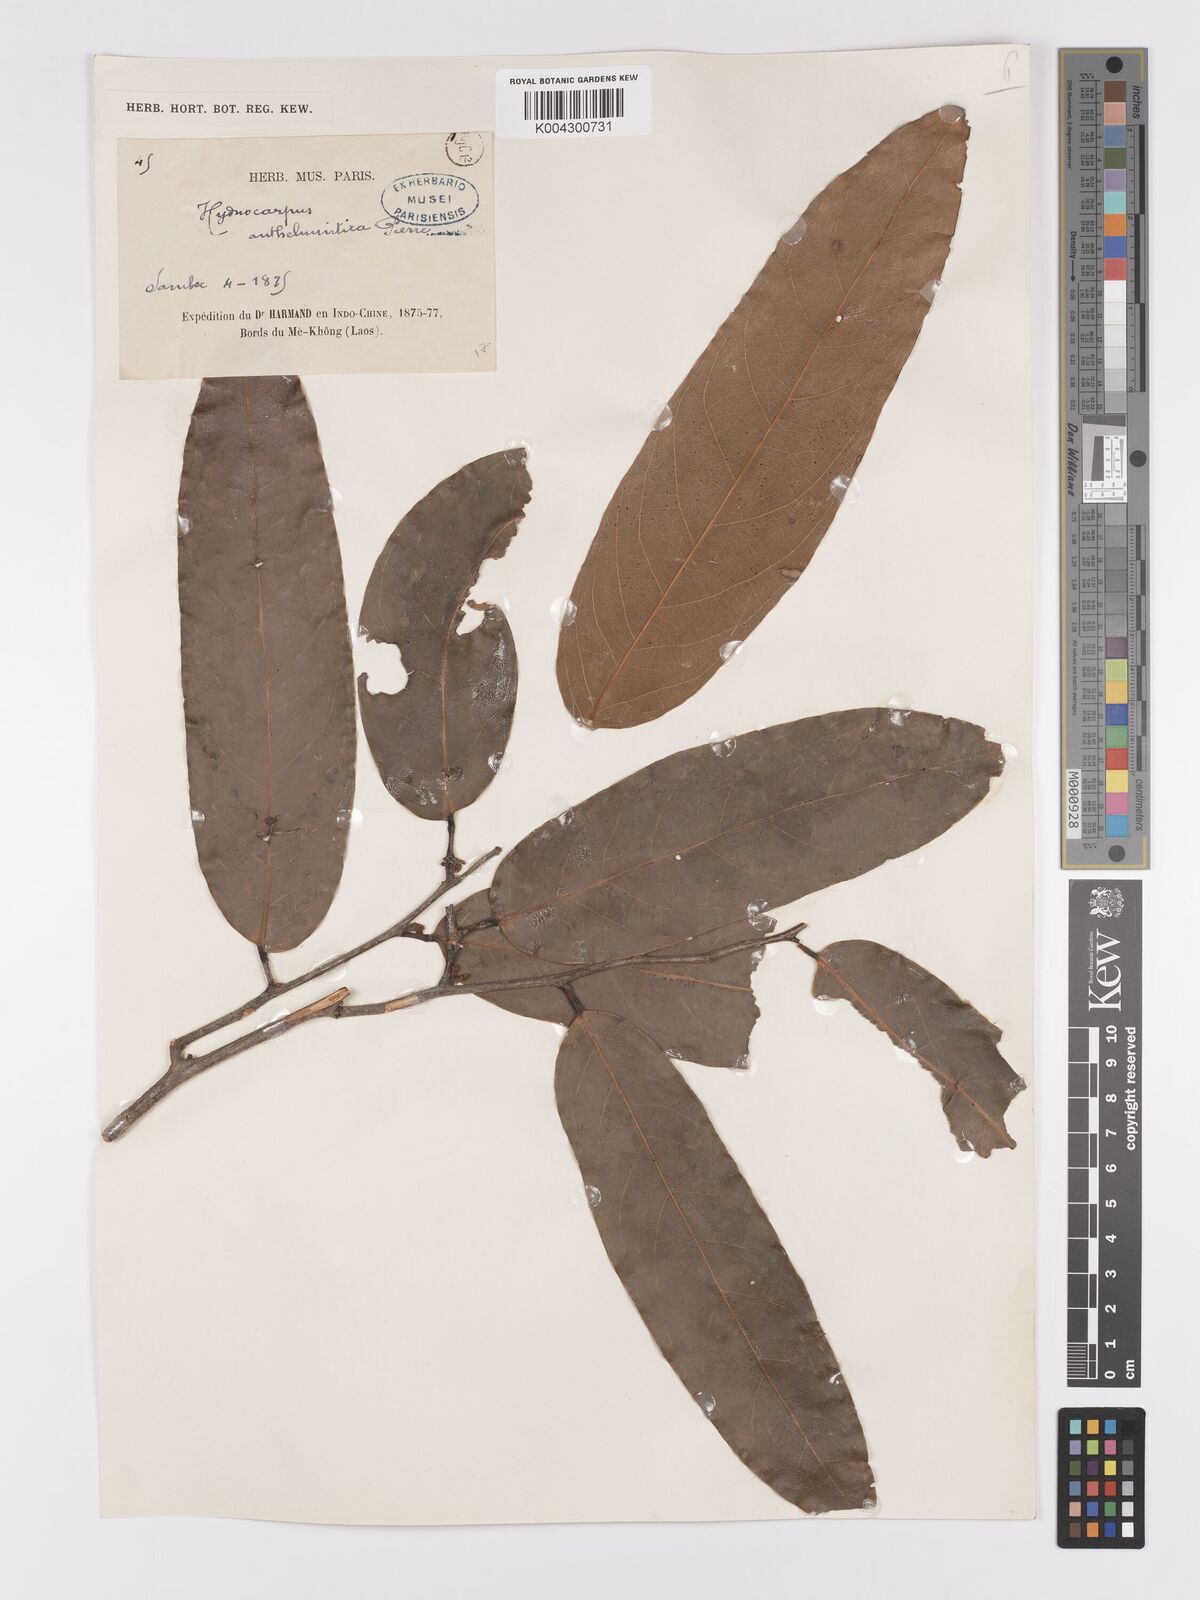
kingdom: Plantae
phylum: Tracheophyta
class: Magnoliopsida
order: Malpighiales
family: Achariaceae
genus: Hydnocarpus
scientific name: Hydnocarpus
